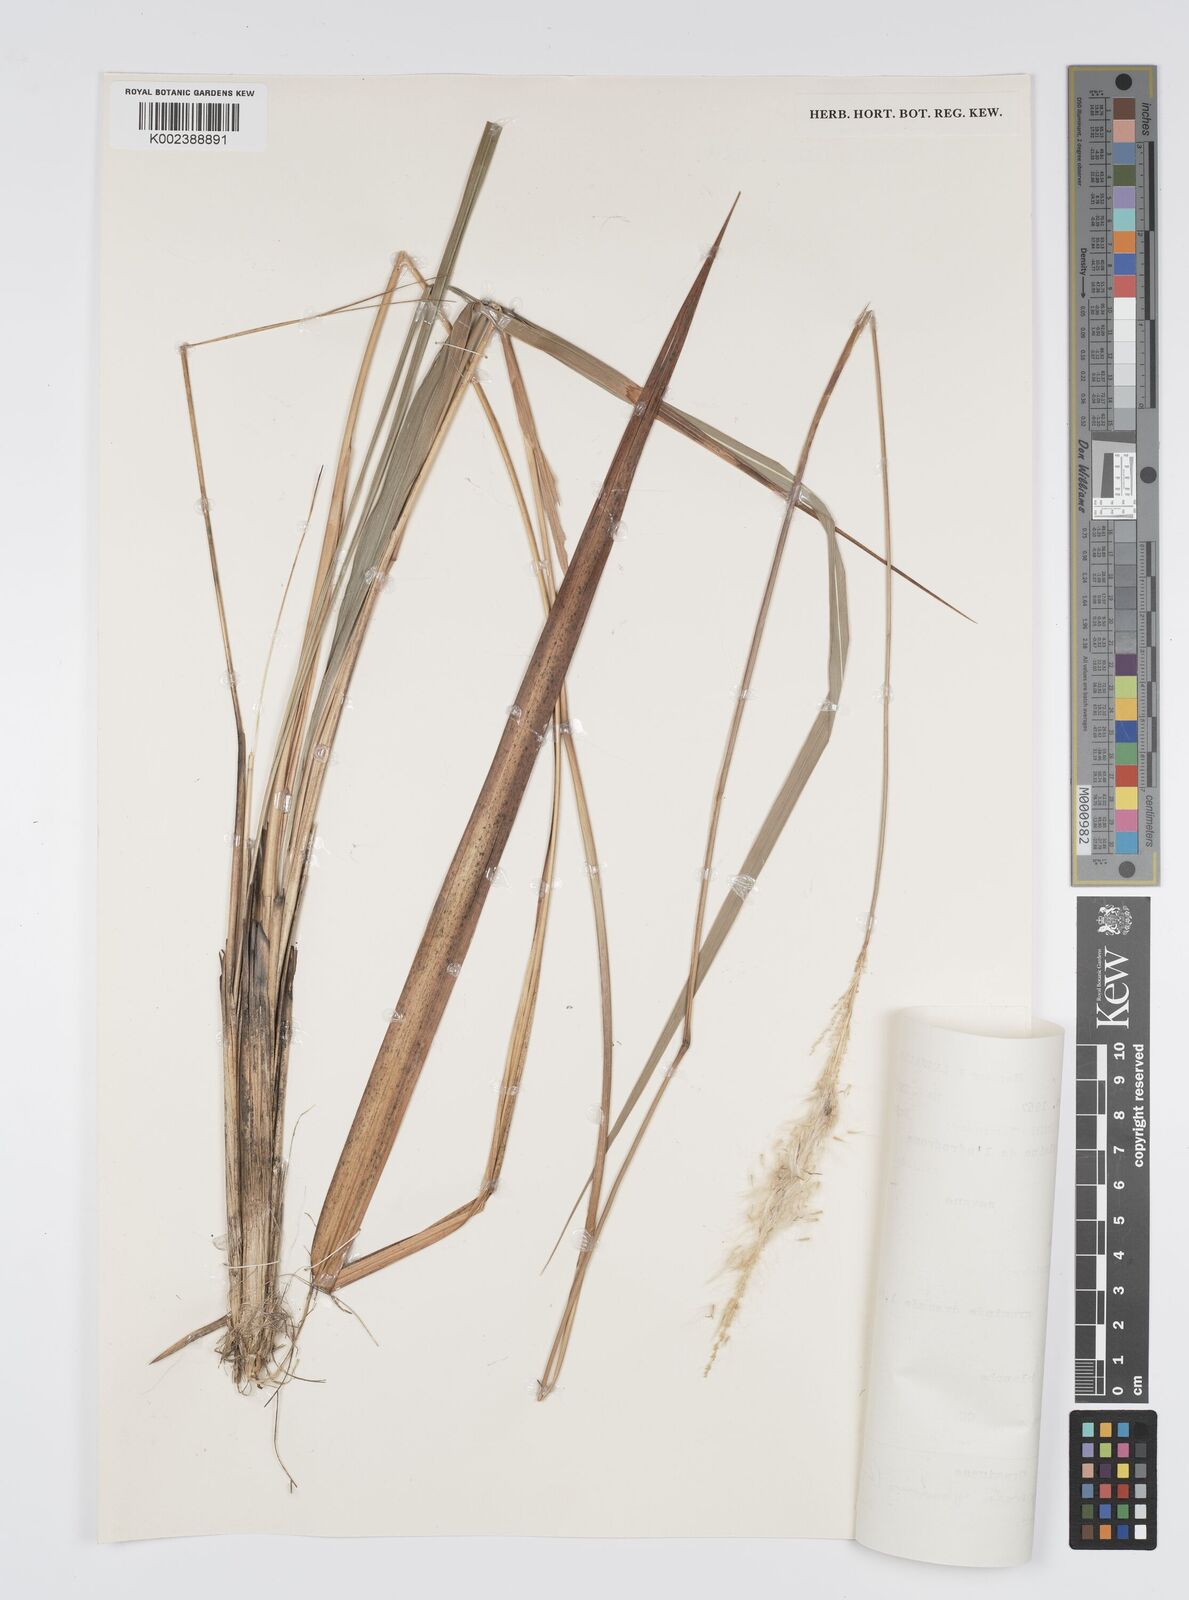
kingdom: Plantae
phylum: Tracheophyta
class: Liliopsida
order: Poales
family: Poaceae
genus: Imperata
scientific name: Imperata cylindrica
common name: Cogongrass
